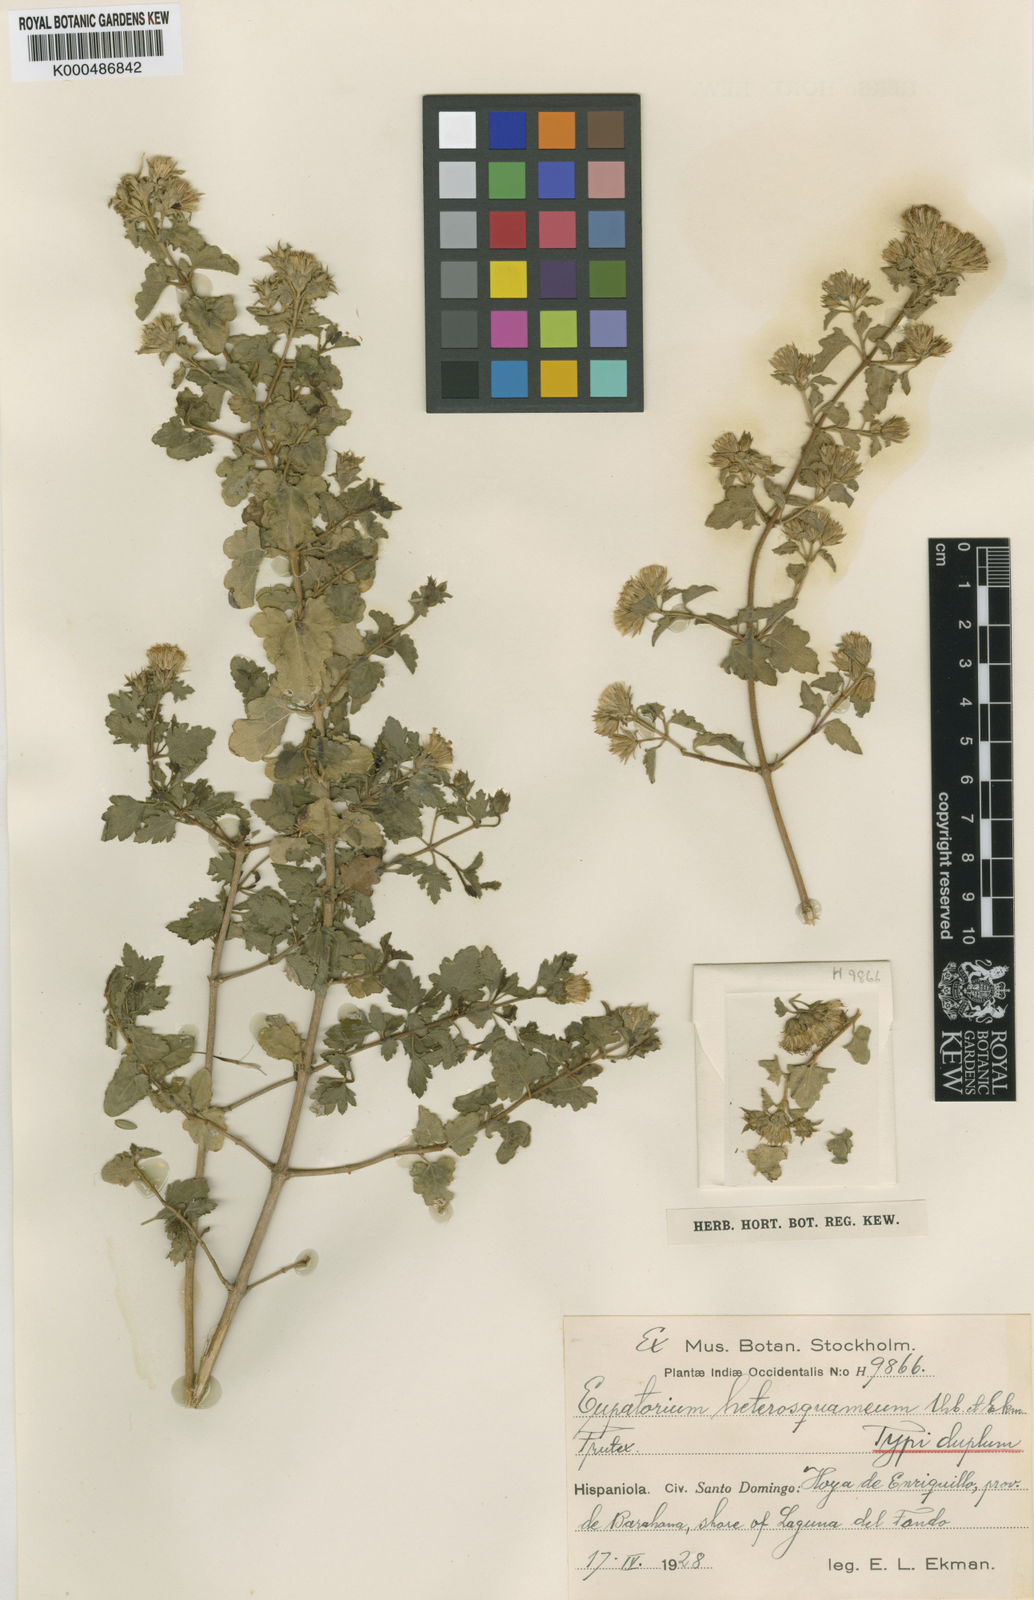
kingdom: Plantae
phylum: Tracheophyta
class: Magnoliopsida
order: Asterales
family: Asteraceae
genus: Chromolaena
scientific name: Chromolaena heterosquamea
